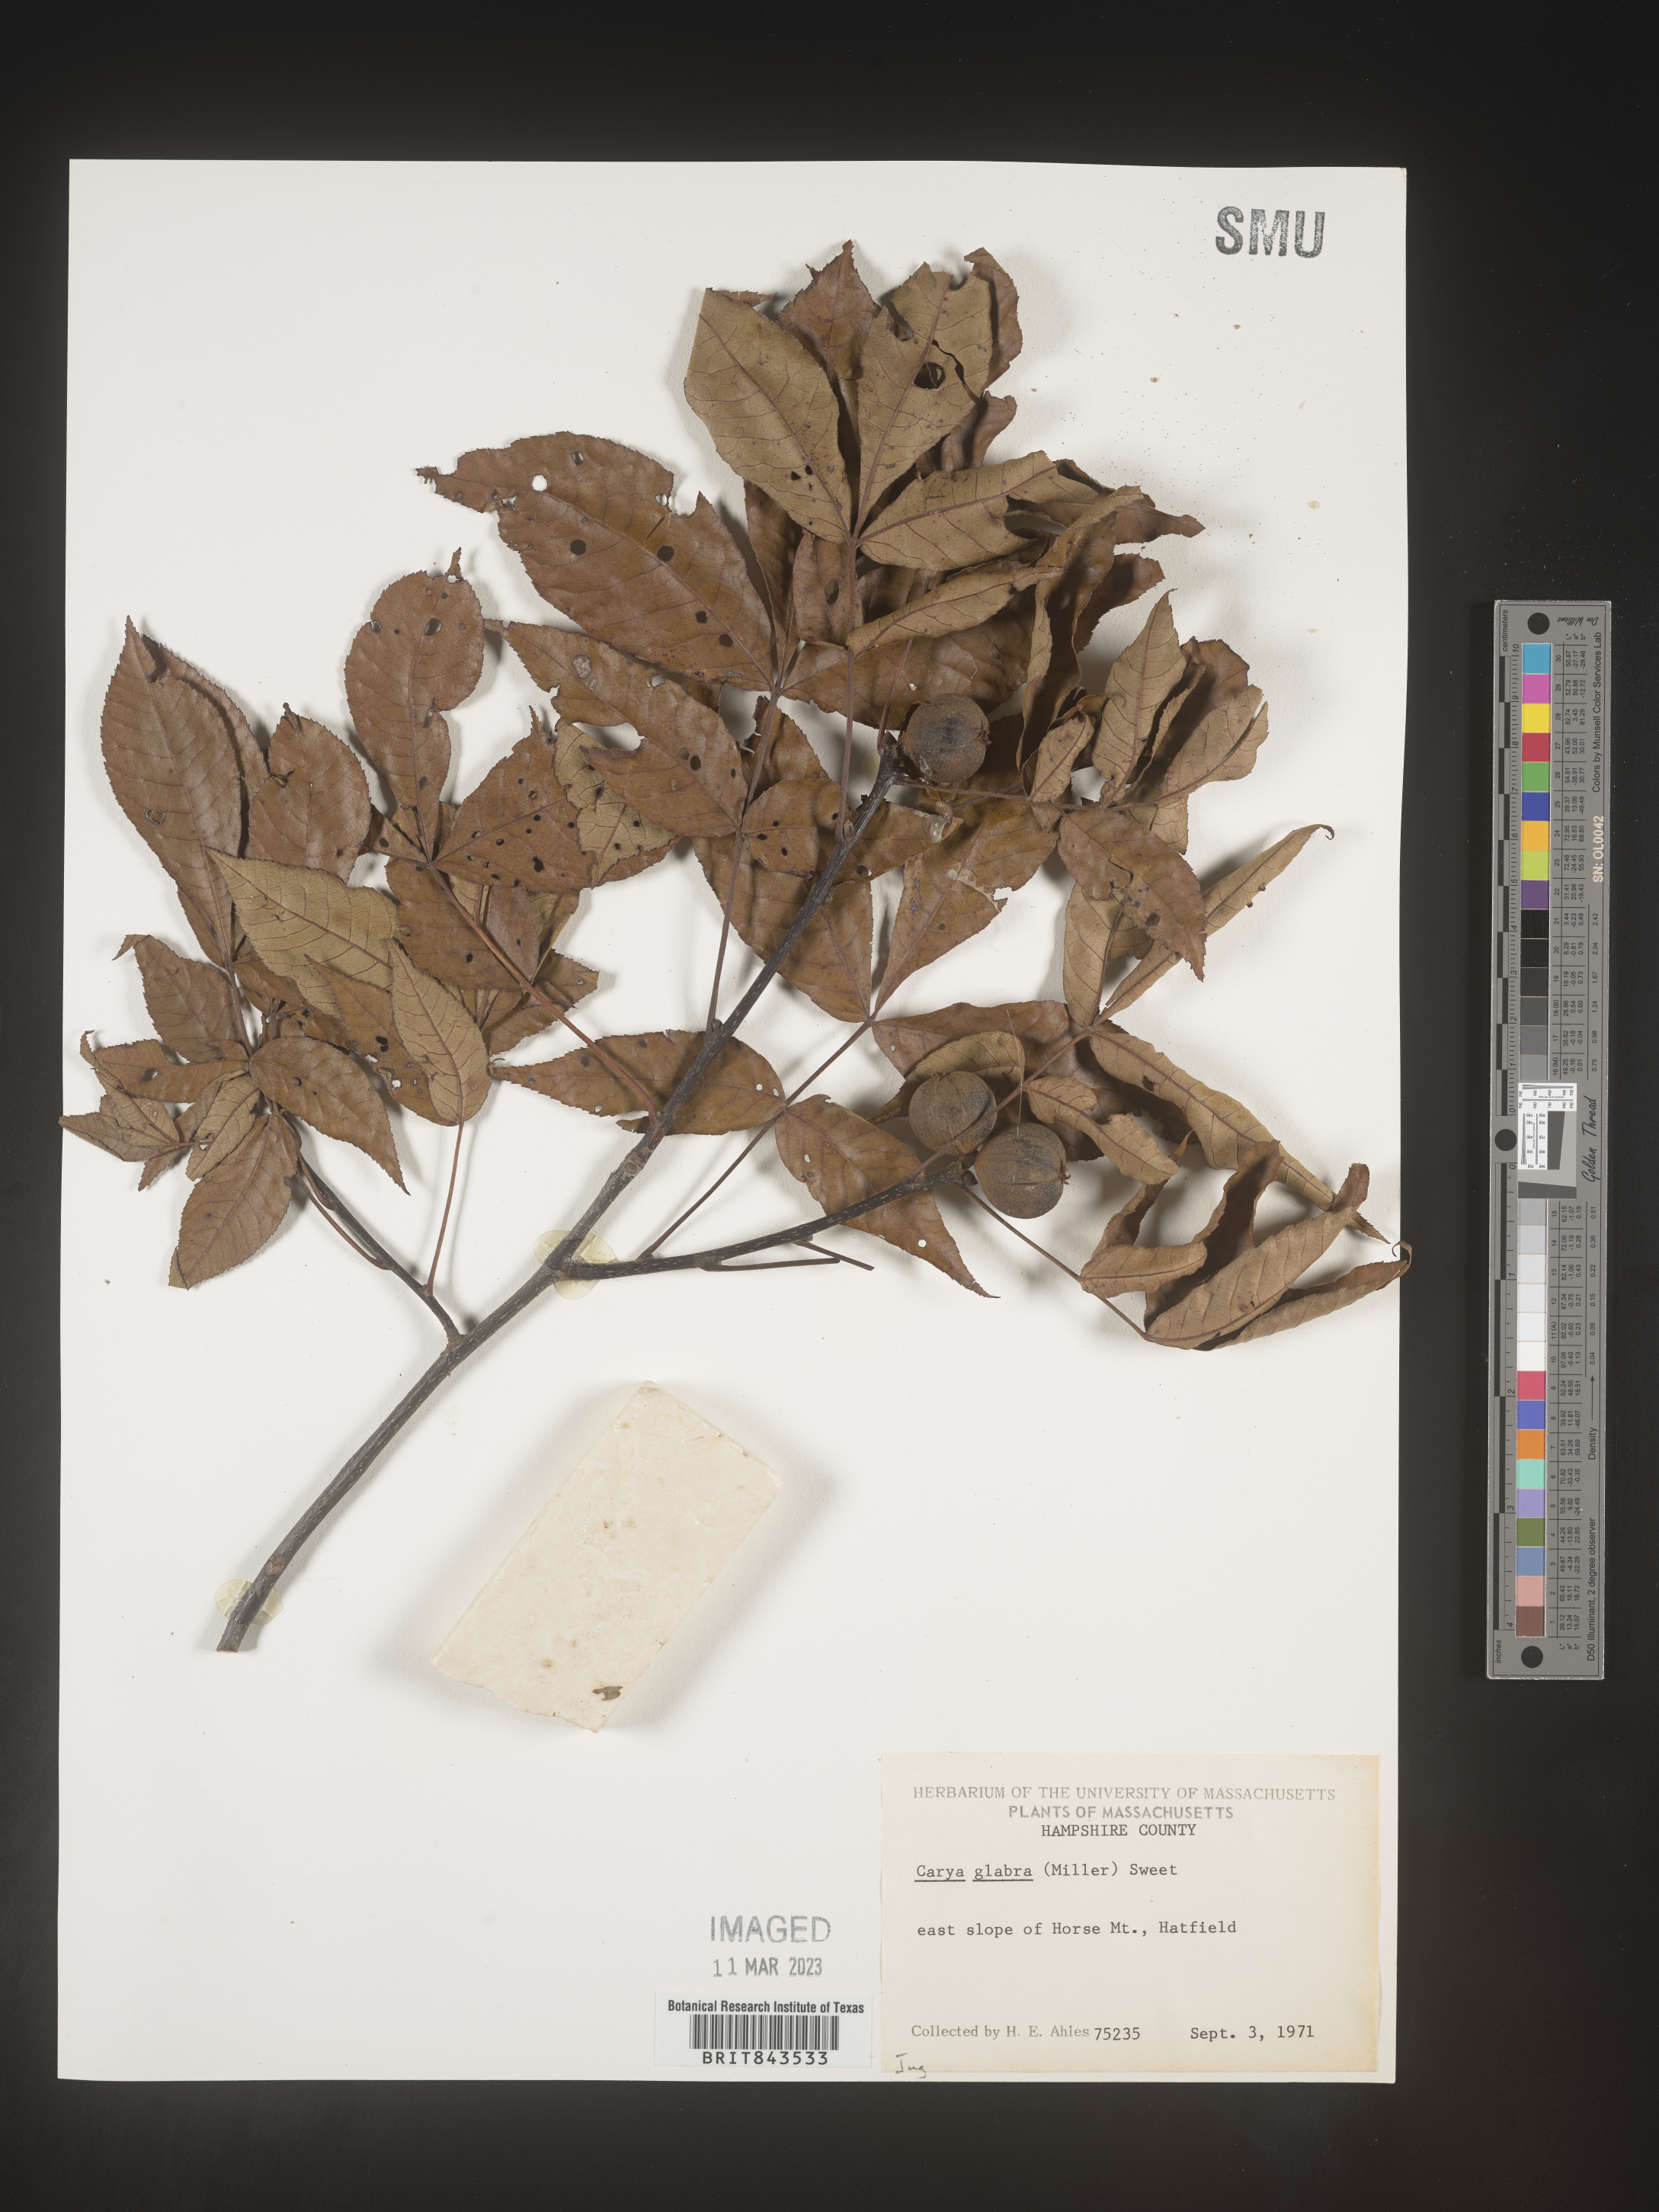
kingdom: Plantae
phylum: Tracheophyta
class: Magnoliopsida
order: Fagales
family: Juglandaceae
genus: Carya
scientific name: Carya glabra
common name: Pignut hickory
